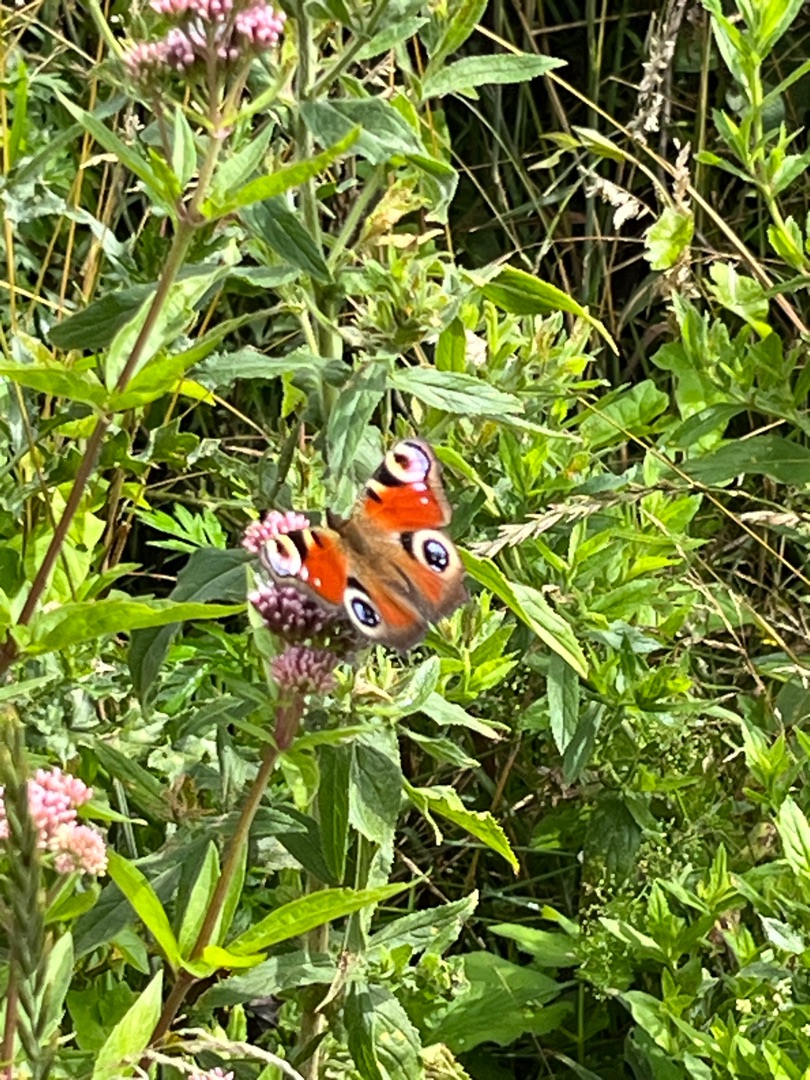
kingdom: Animalia
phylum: Arthropoda
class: Insecta
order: Lepidoptera
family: Nymphalidae
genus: Aglais
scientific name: Aglais io
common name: Dagpåfugleøje
